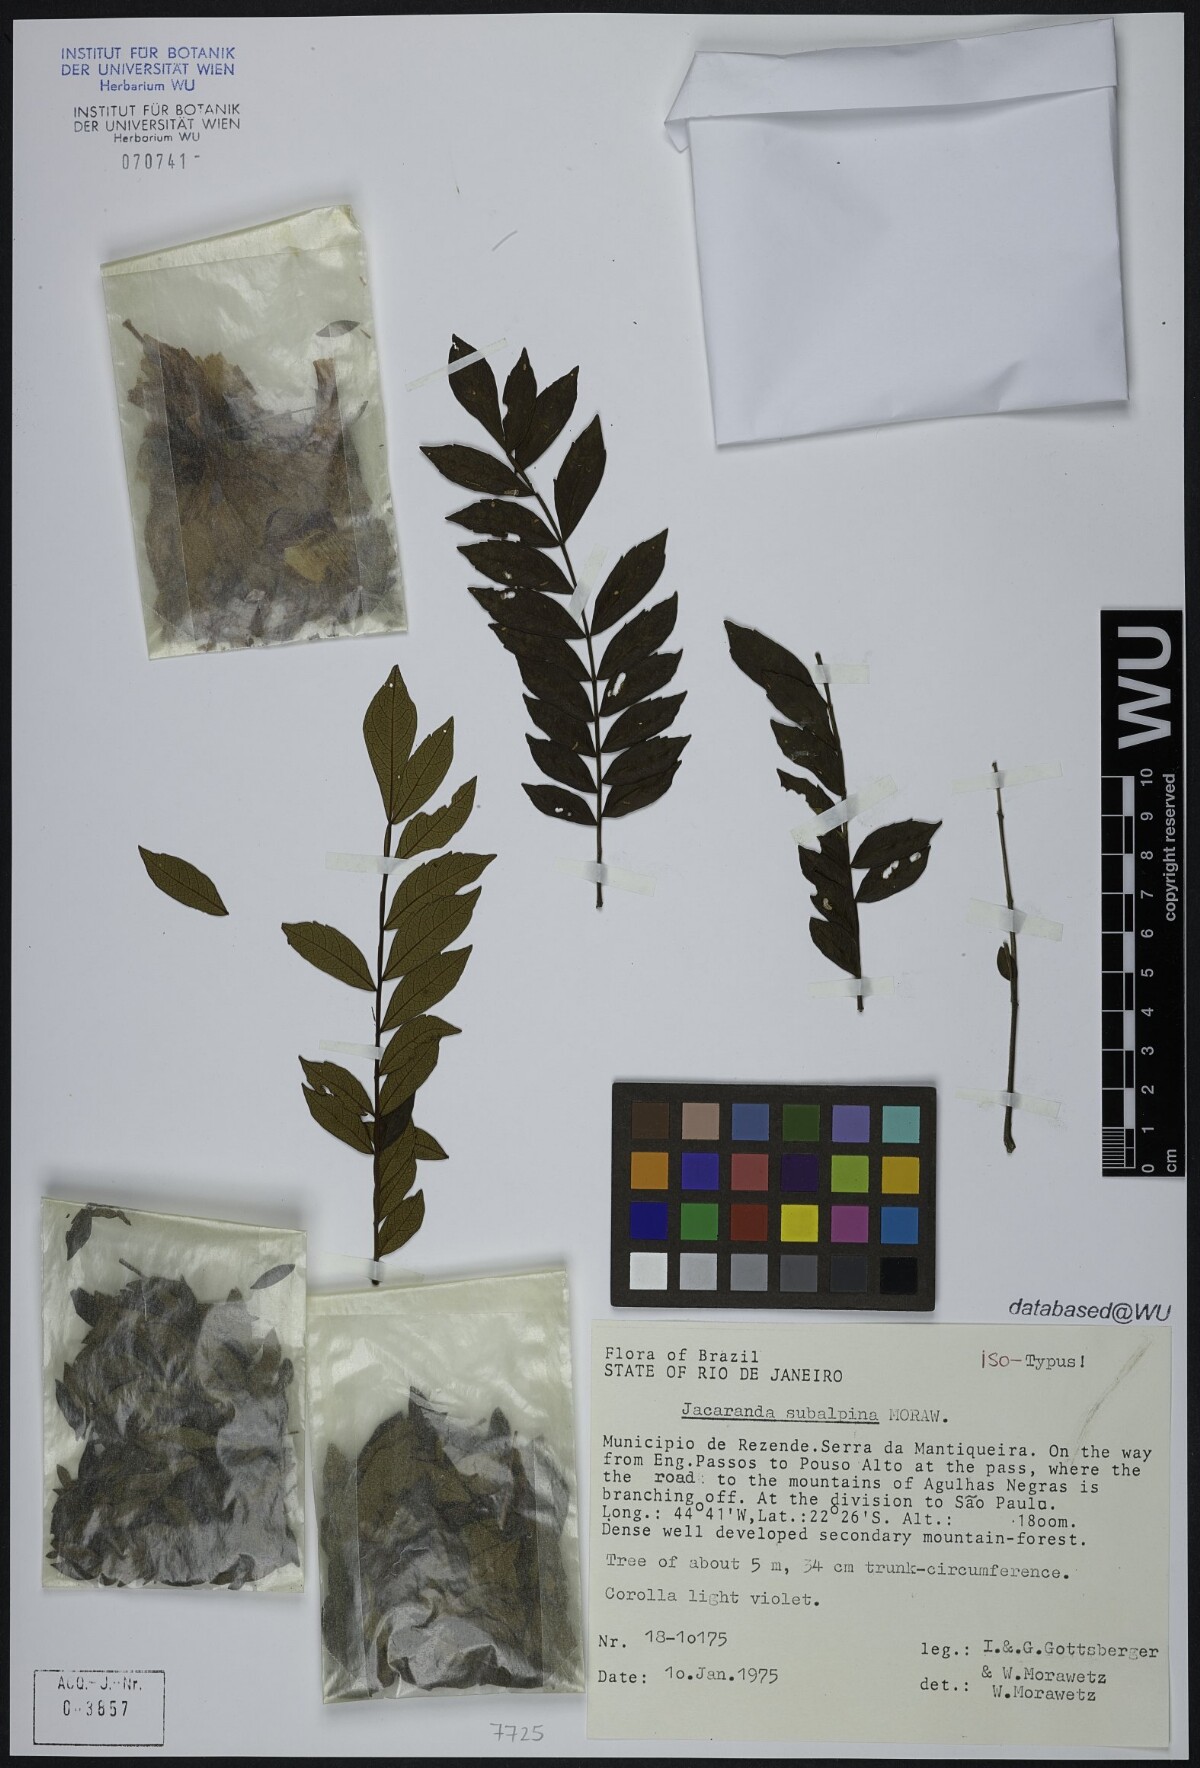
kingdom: Plantae
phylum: Tracheophyta
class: Magnoliopsida
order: Lamiales
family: Bignoniaceae
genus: Jacaranda
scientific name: Jacaranda subalpina
